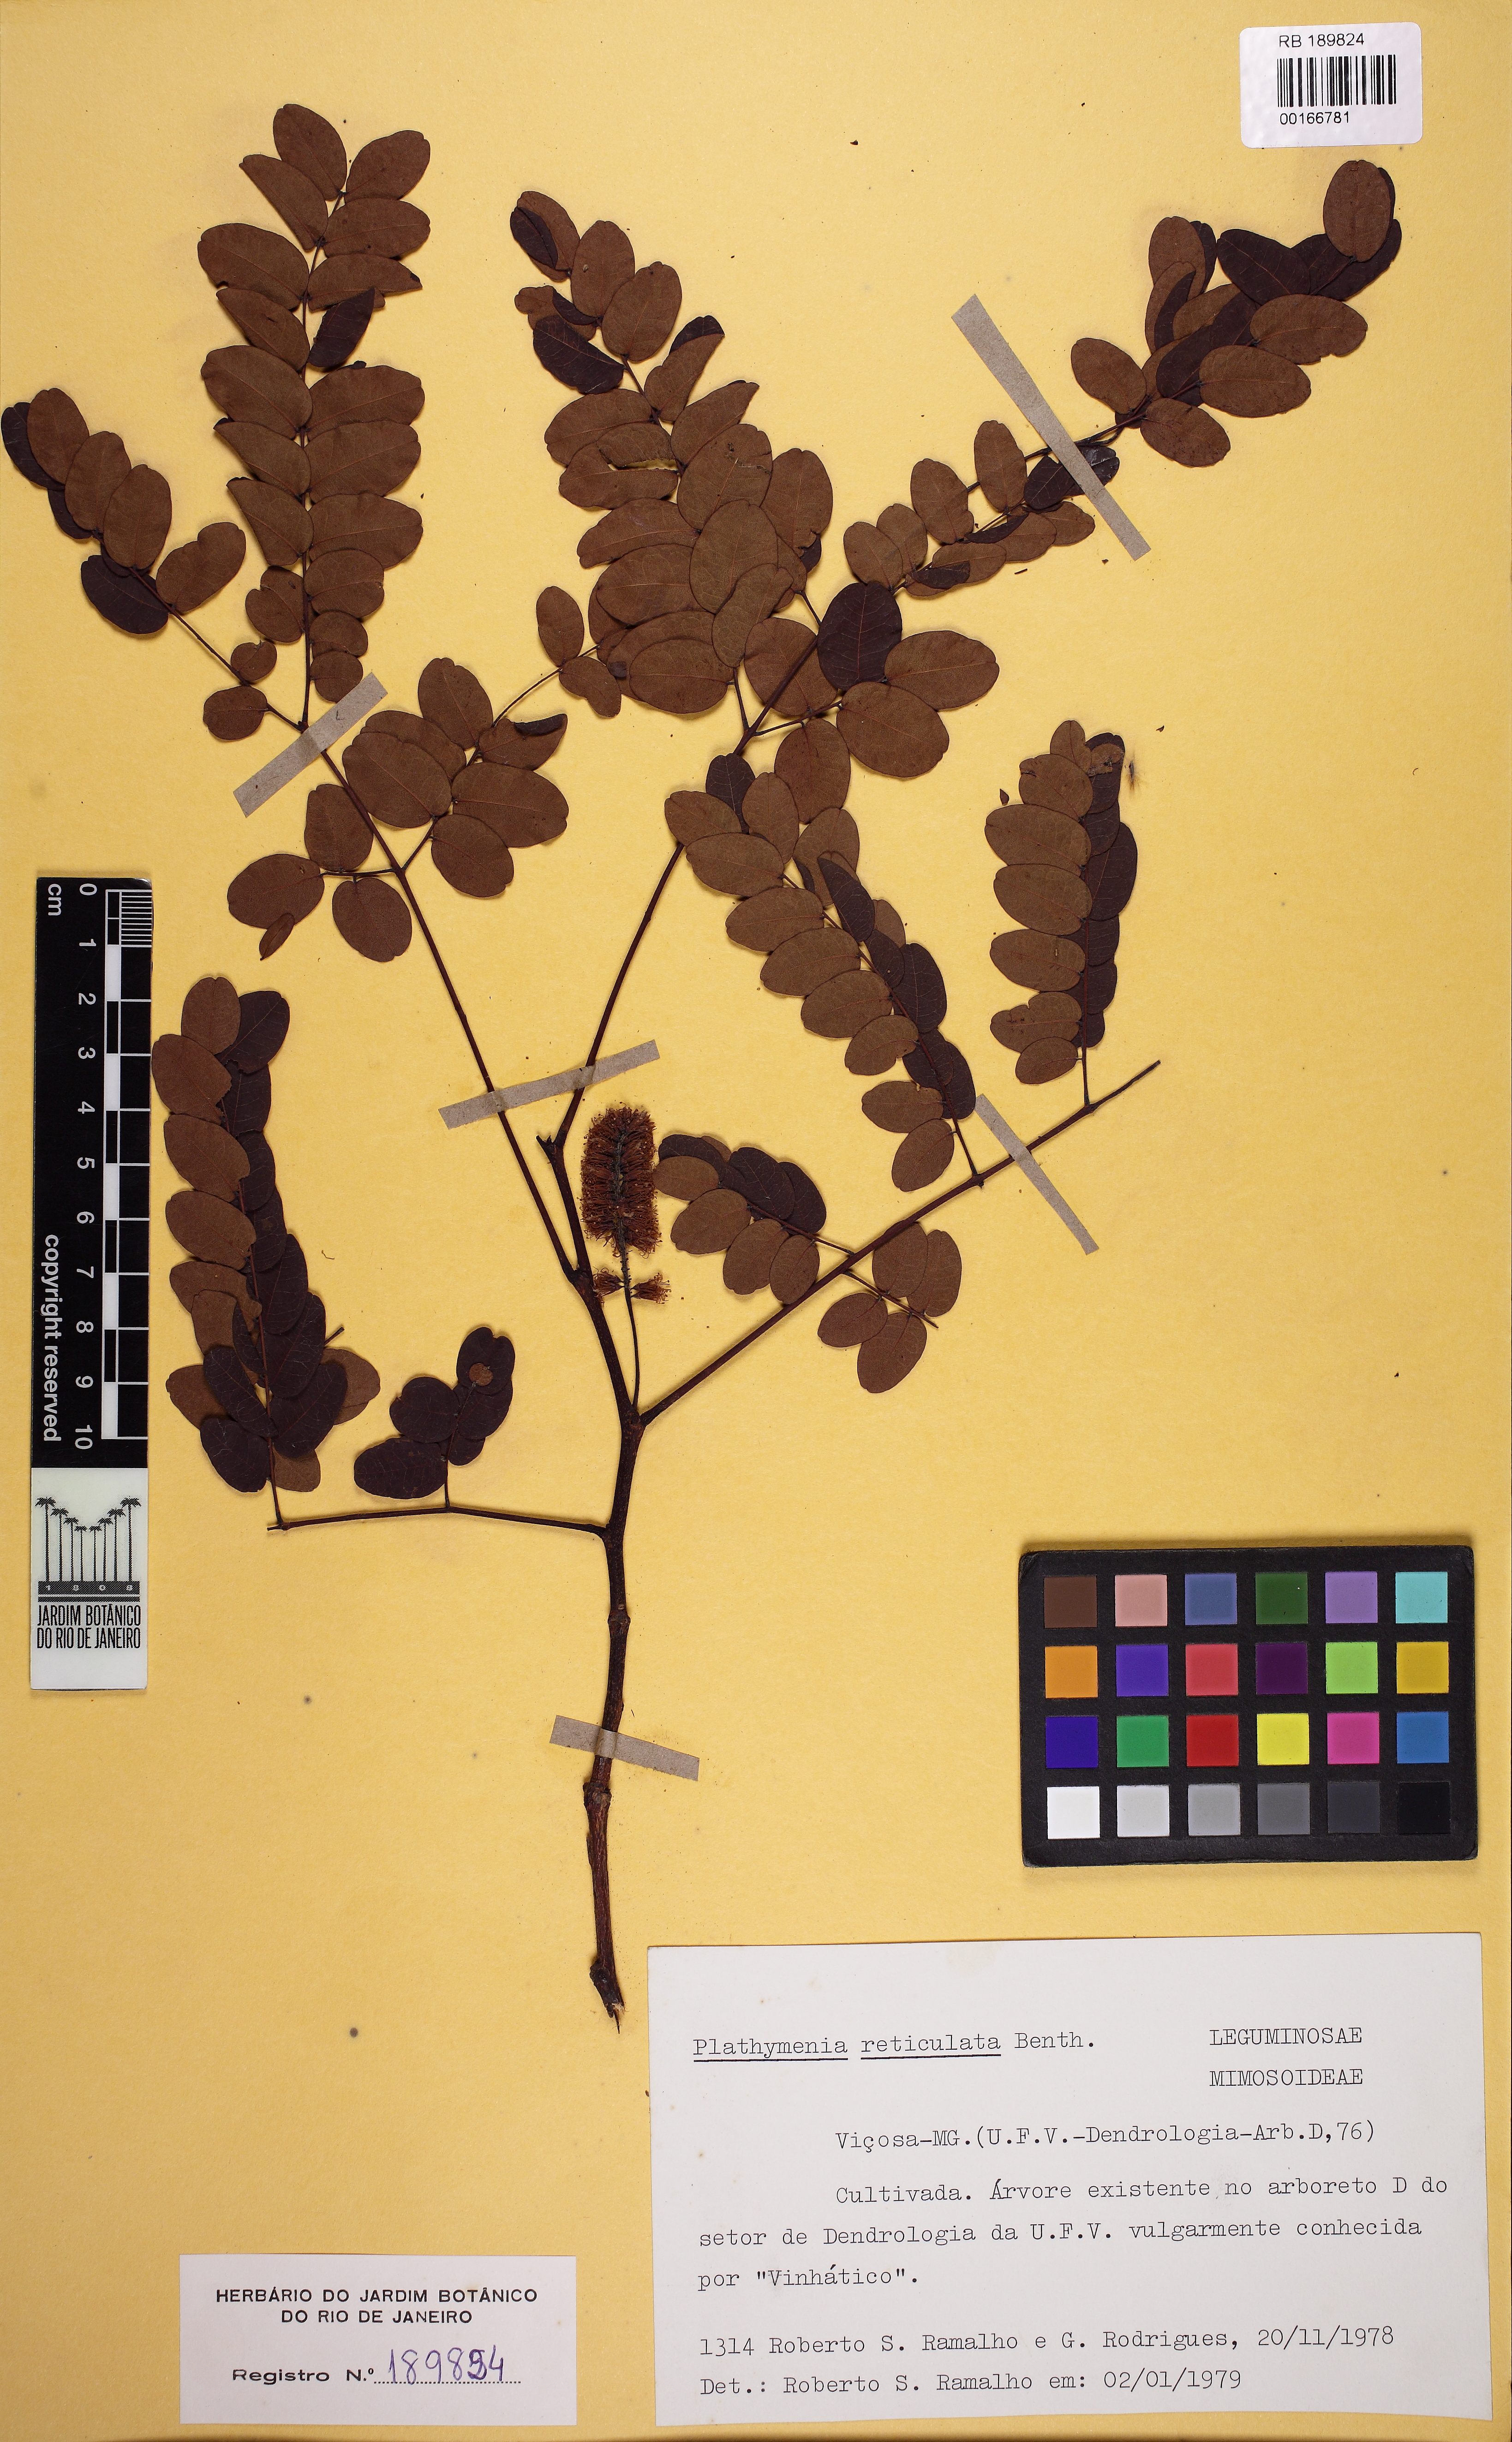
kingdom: Plantae
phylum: Tracheophyta
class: Magnoliopsida
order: Fabales
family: Fabaceae
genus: Plathymenia
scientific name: Plathymenia reticulata
